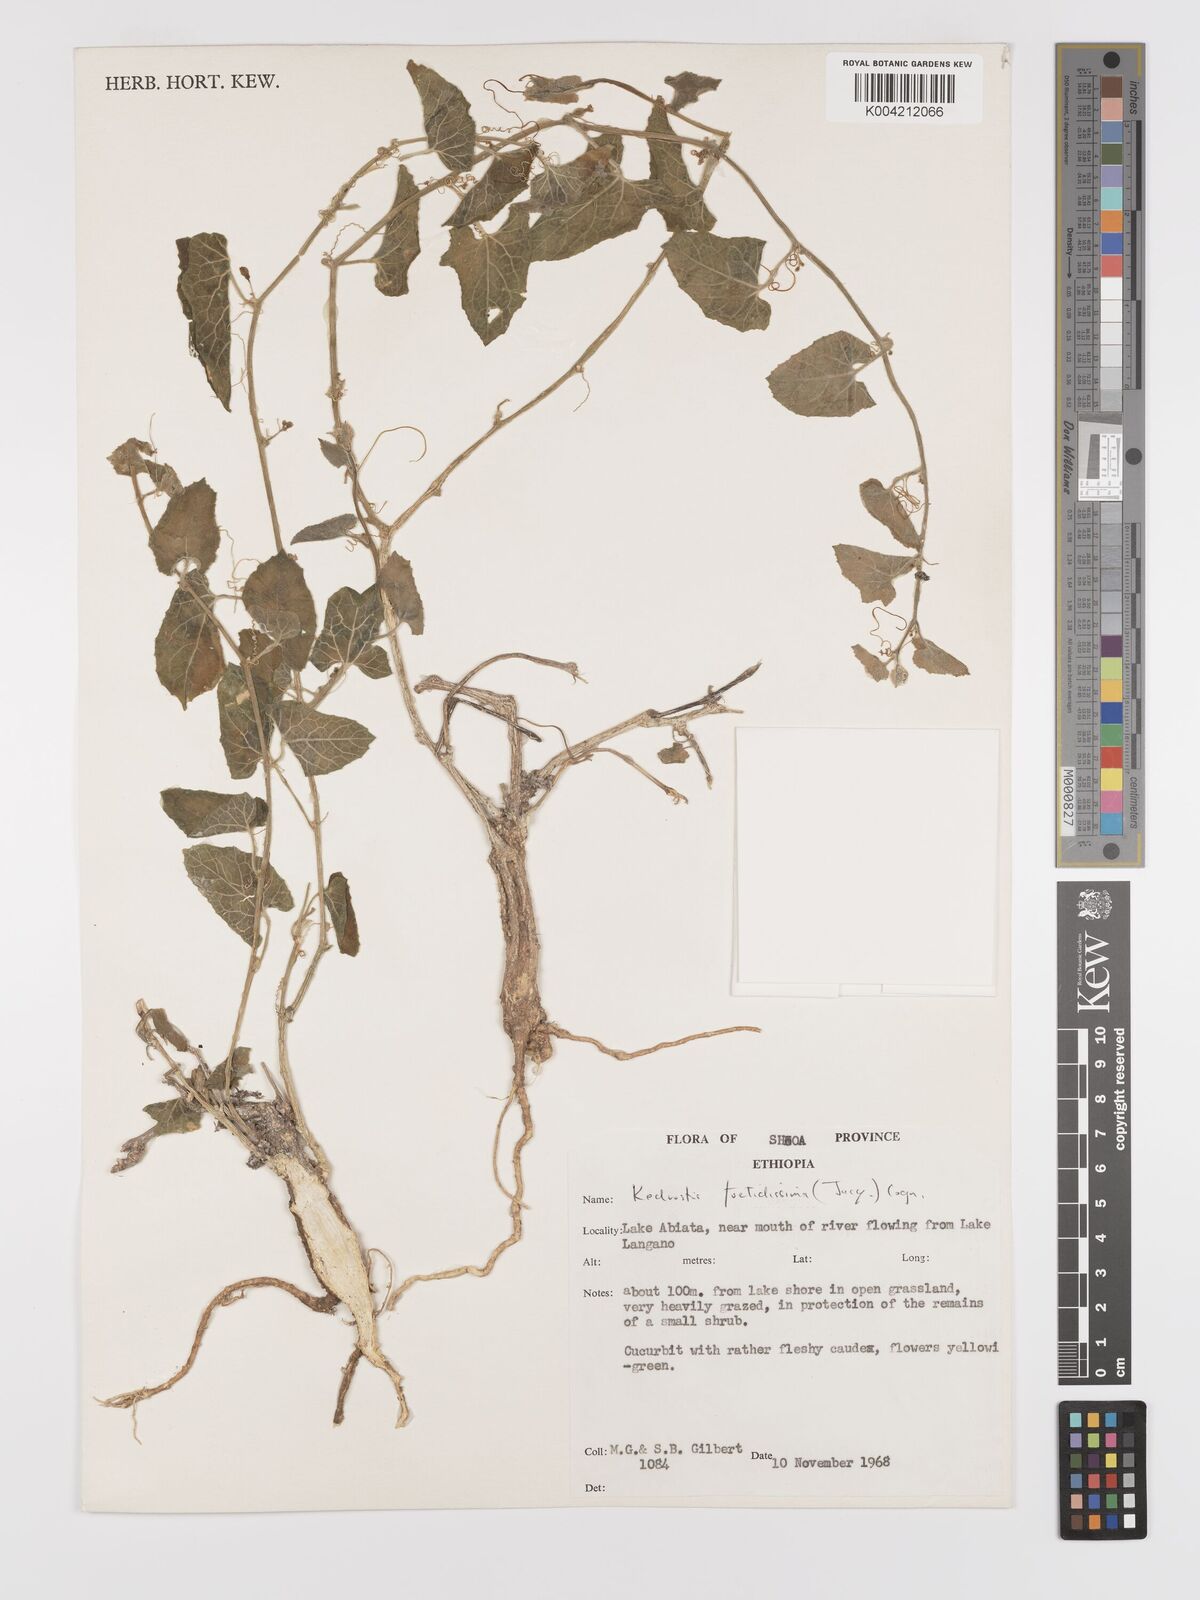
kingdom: Plantae
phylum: Tracheophyta
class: Magnoliopsida
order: Cucurbitales
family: Cucurbitaceae
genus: Kedrostis
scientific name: Kedrostis foetidissima
